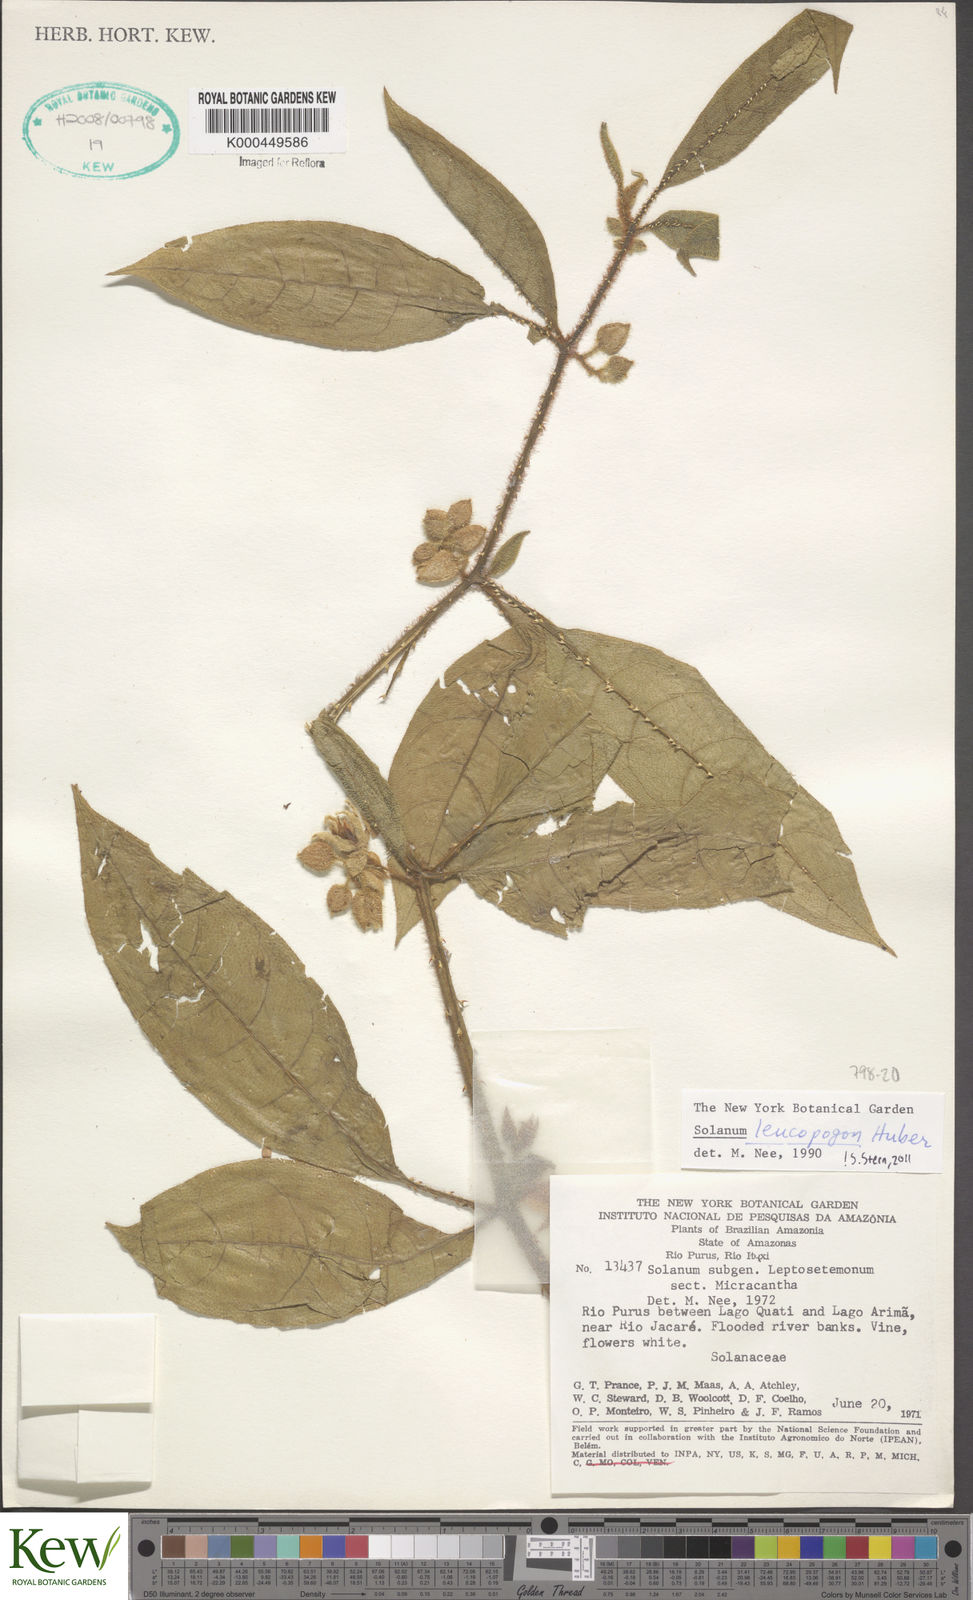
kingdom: Plantae
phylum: Tracheophyta
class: Magnoliopsida
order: Solanales
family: Solanaceae
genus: Solanum
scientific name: Solanum leucopogon
